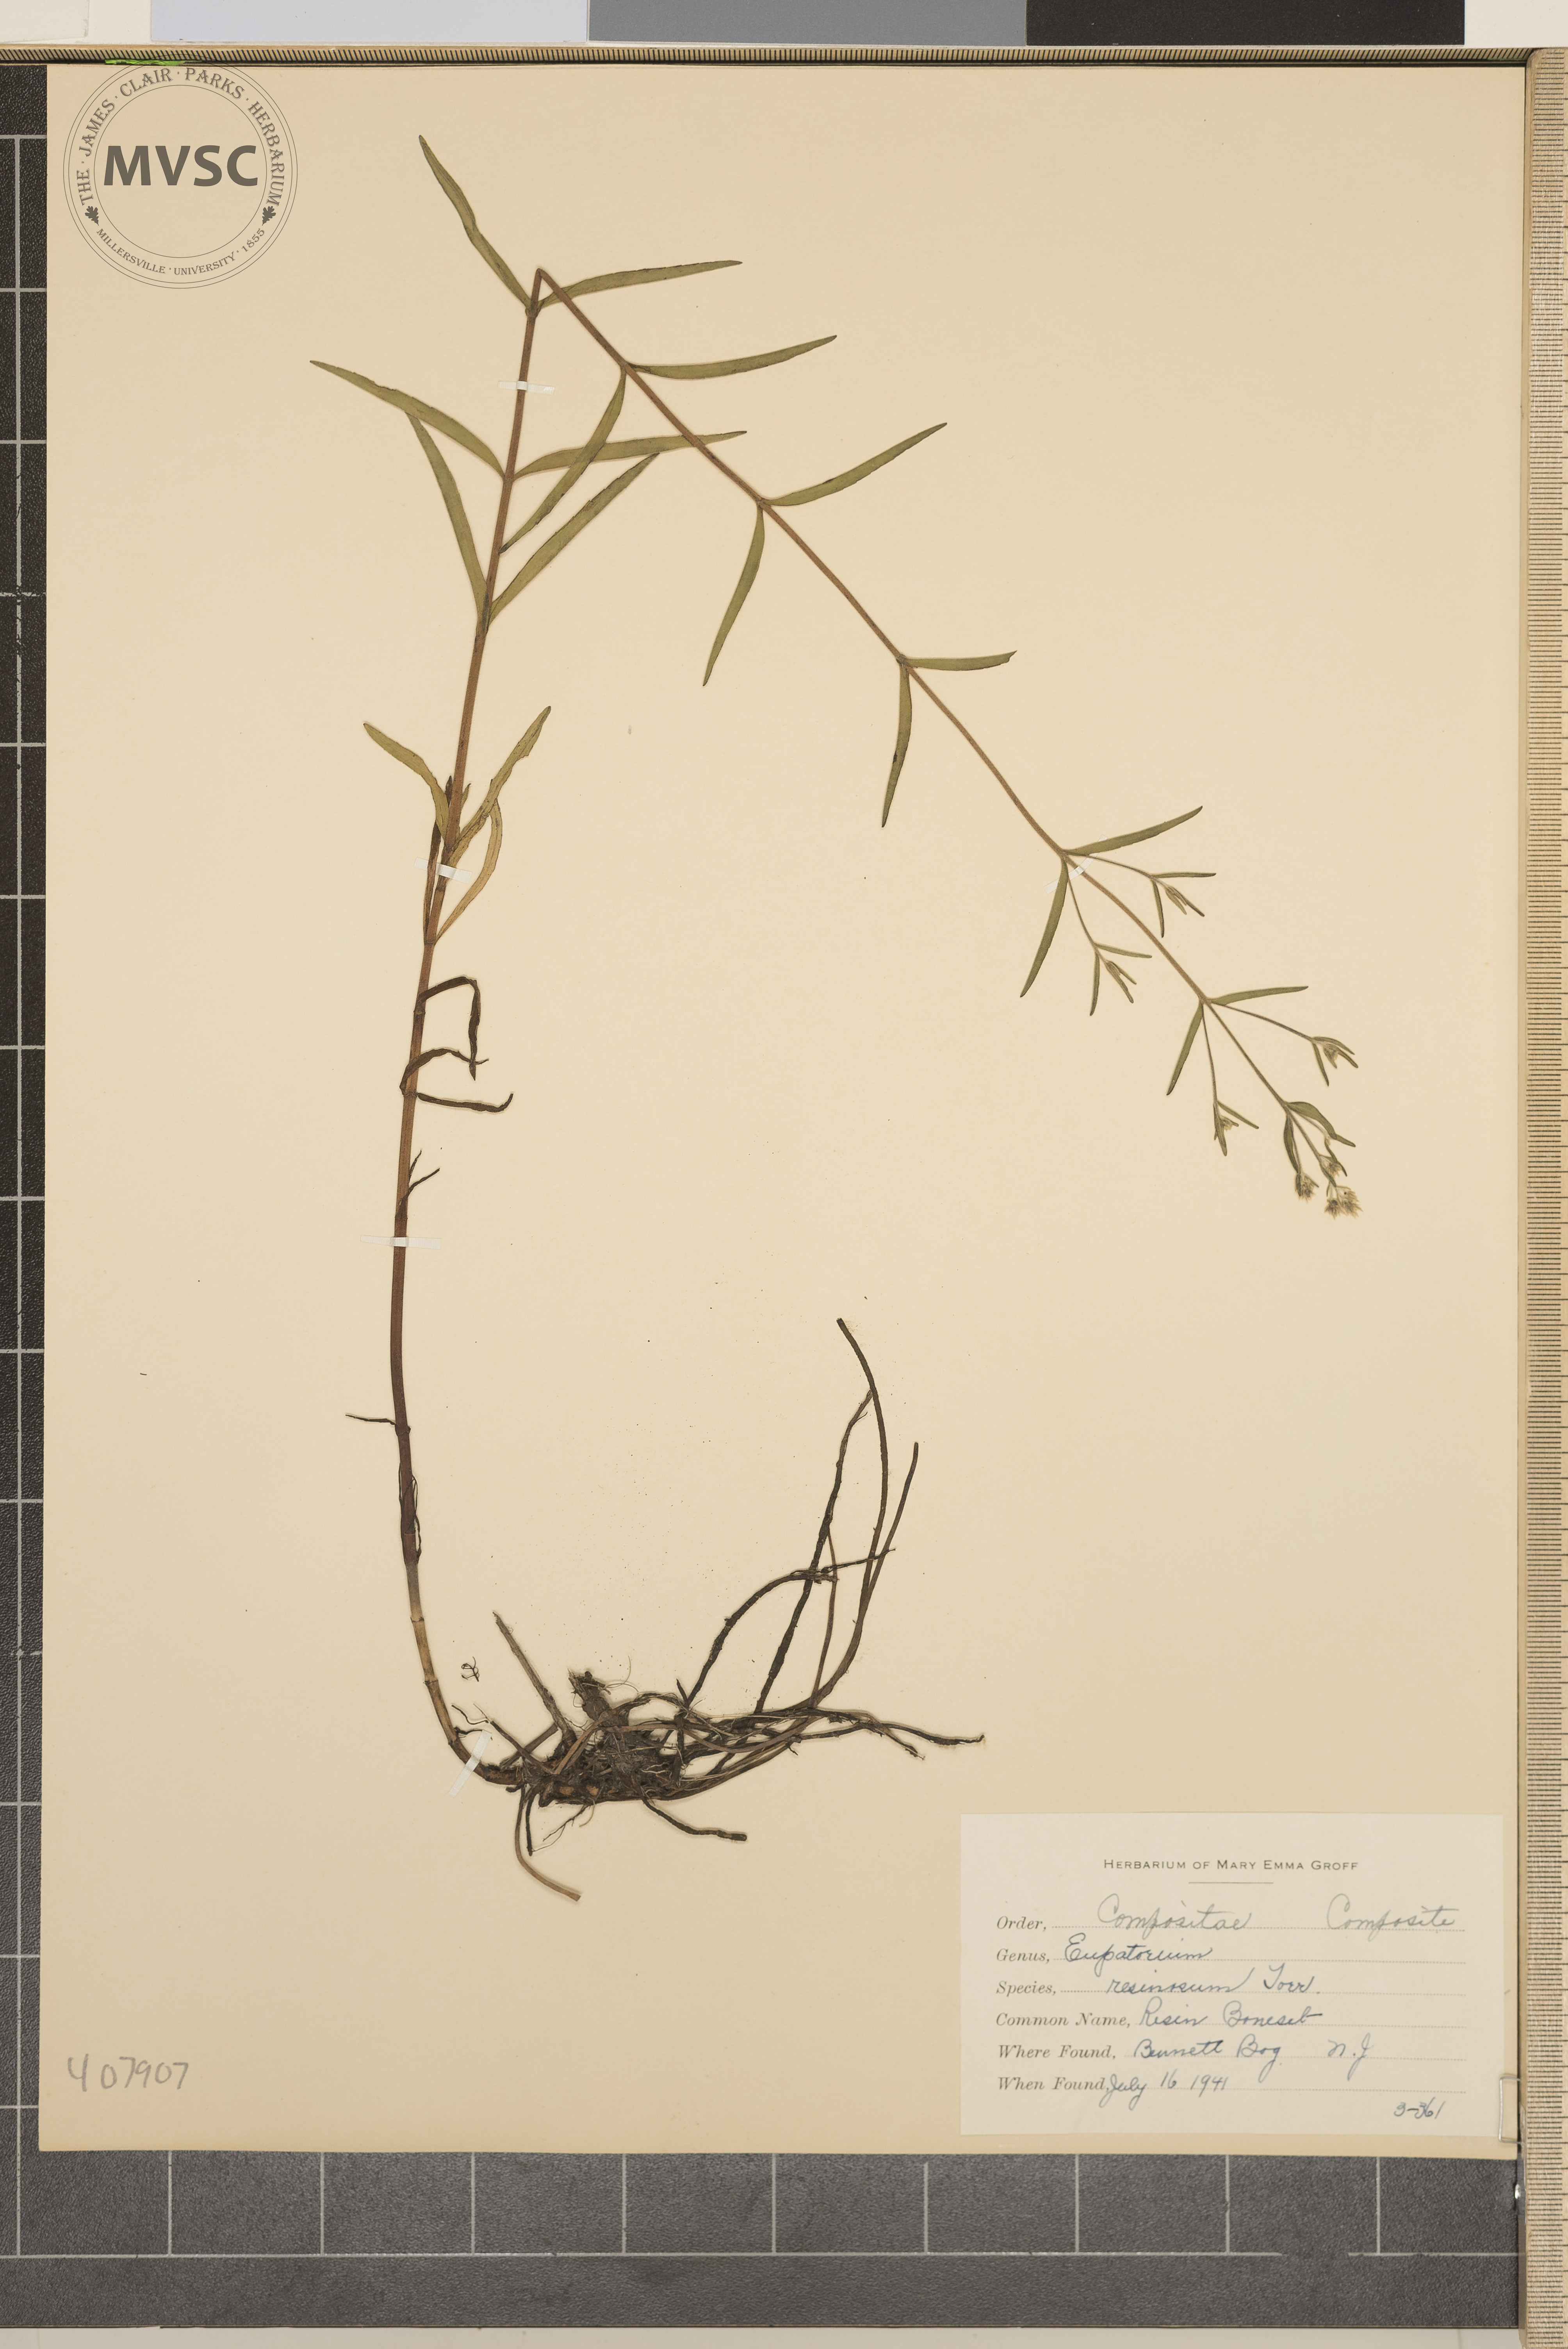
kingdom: Plantae
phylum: Tracheophyta
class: Magnoliopsida
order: Asterales
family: Asteraceae
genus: Eupatorium
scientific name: Eupatorium resinosum
